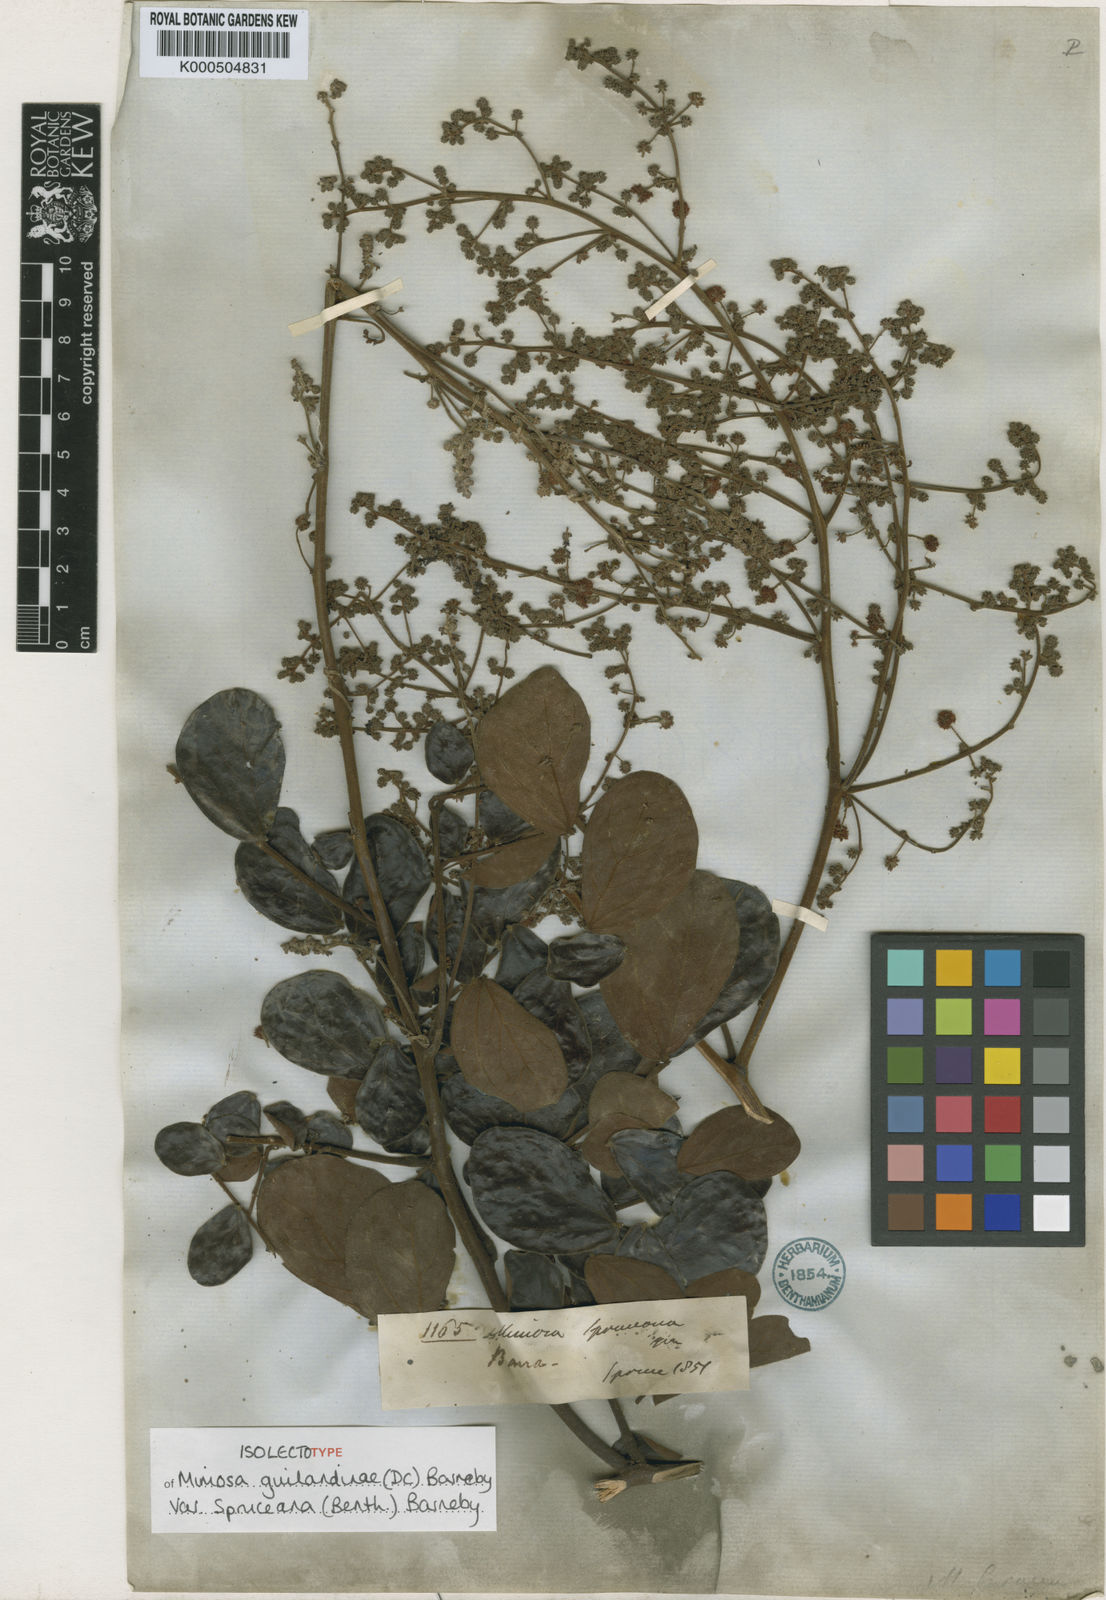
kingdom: Plantae
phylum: Tracheophyta
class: Magnoliopsida
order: Fabales
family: Fabaceae
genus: Mimosa
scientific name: Mimosa guilandinae
